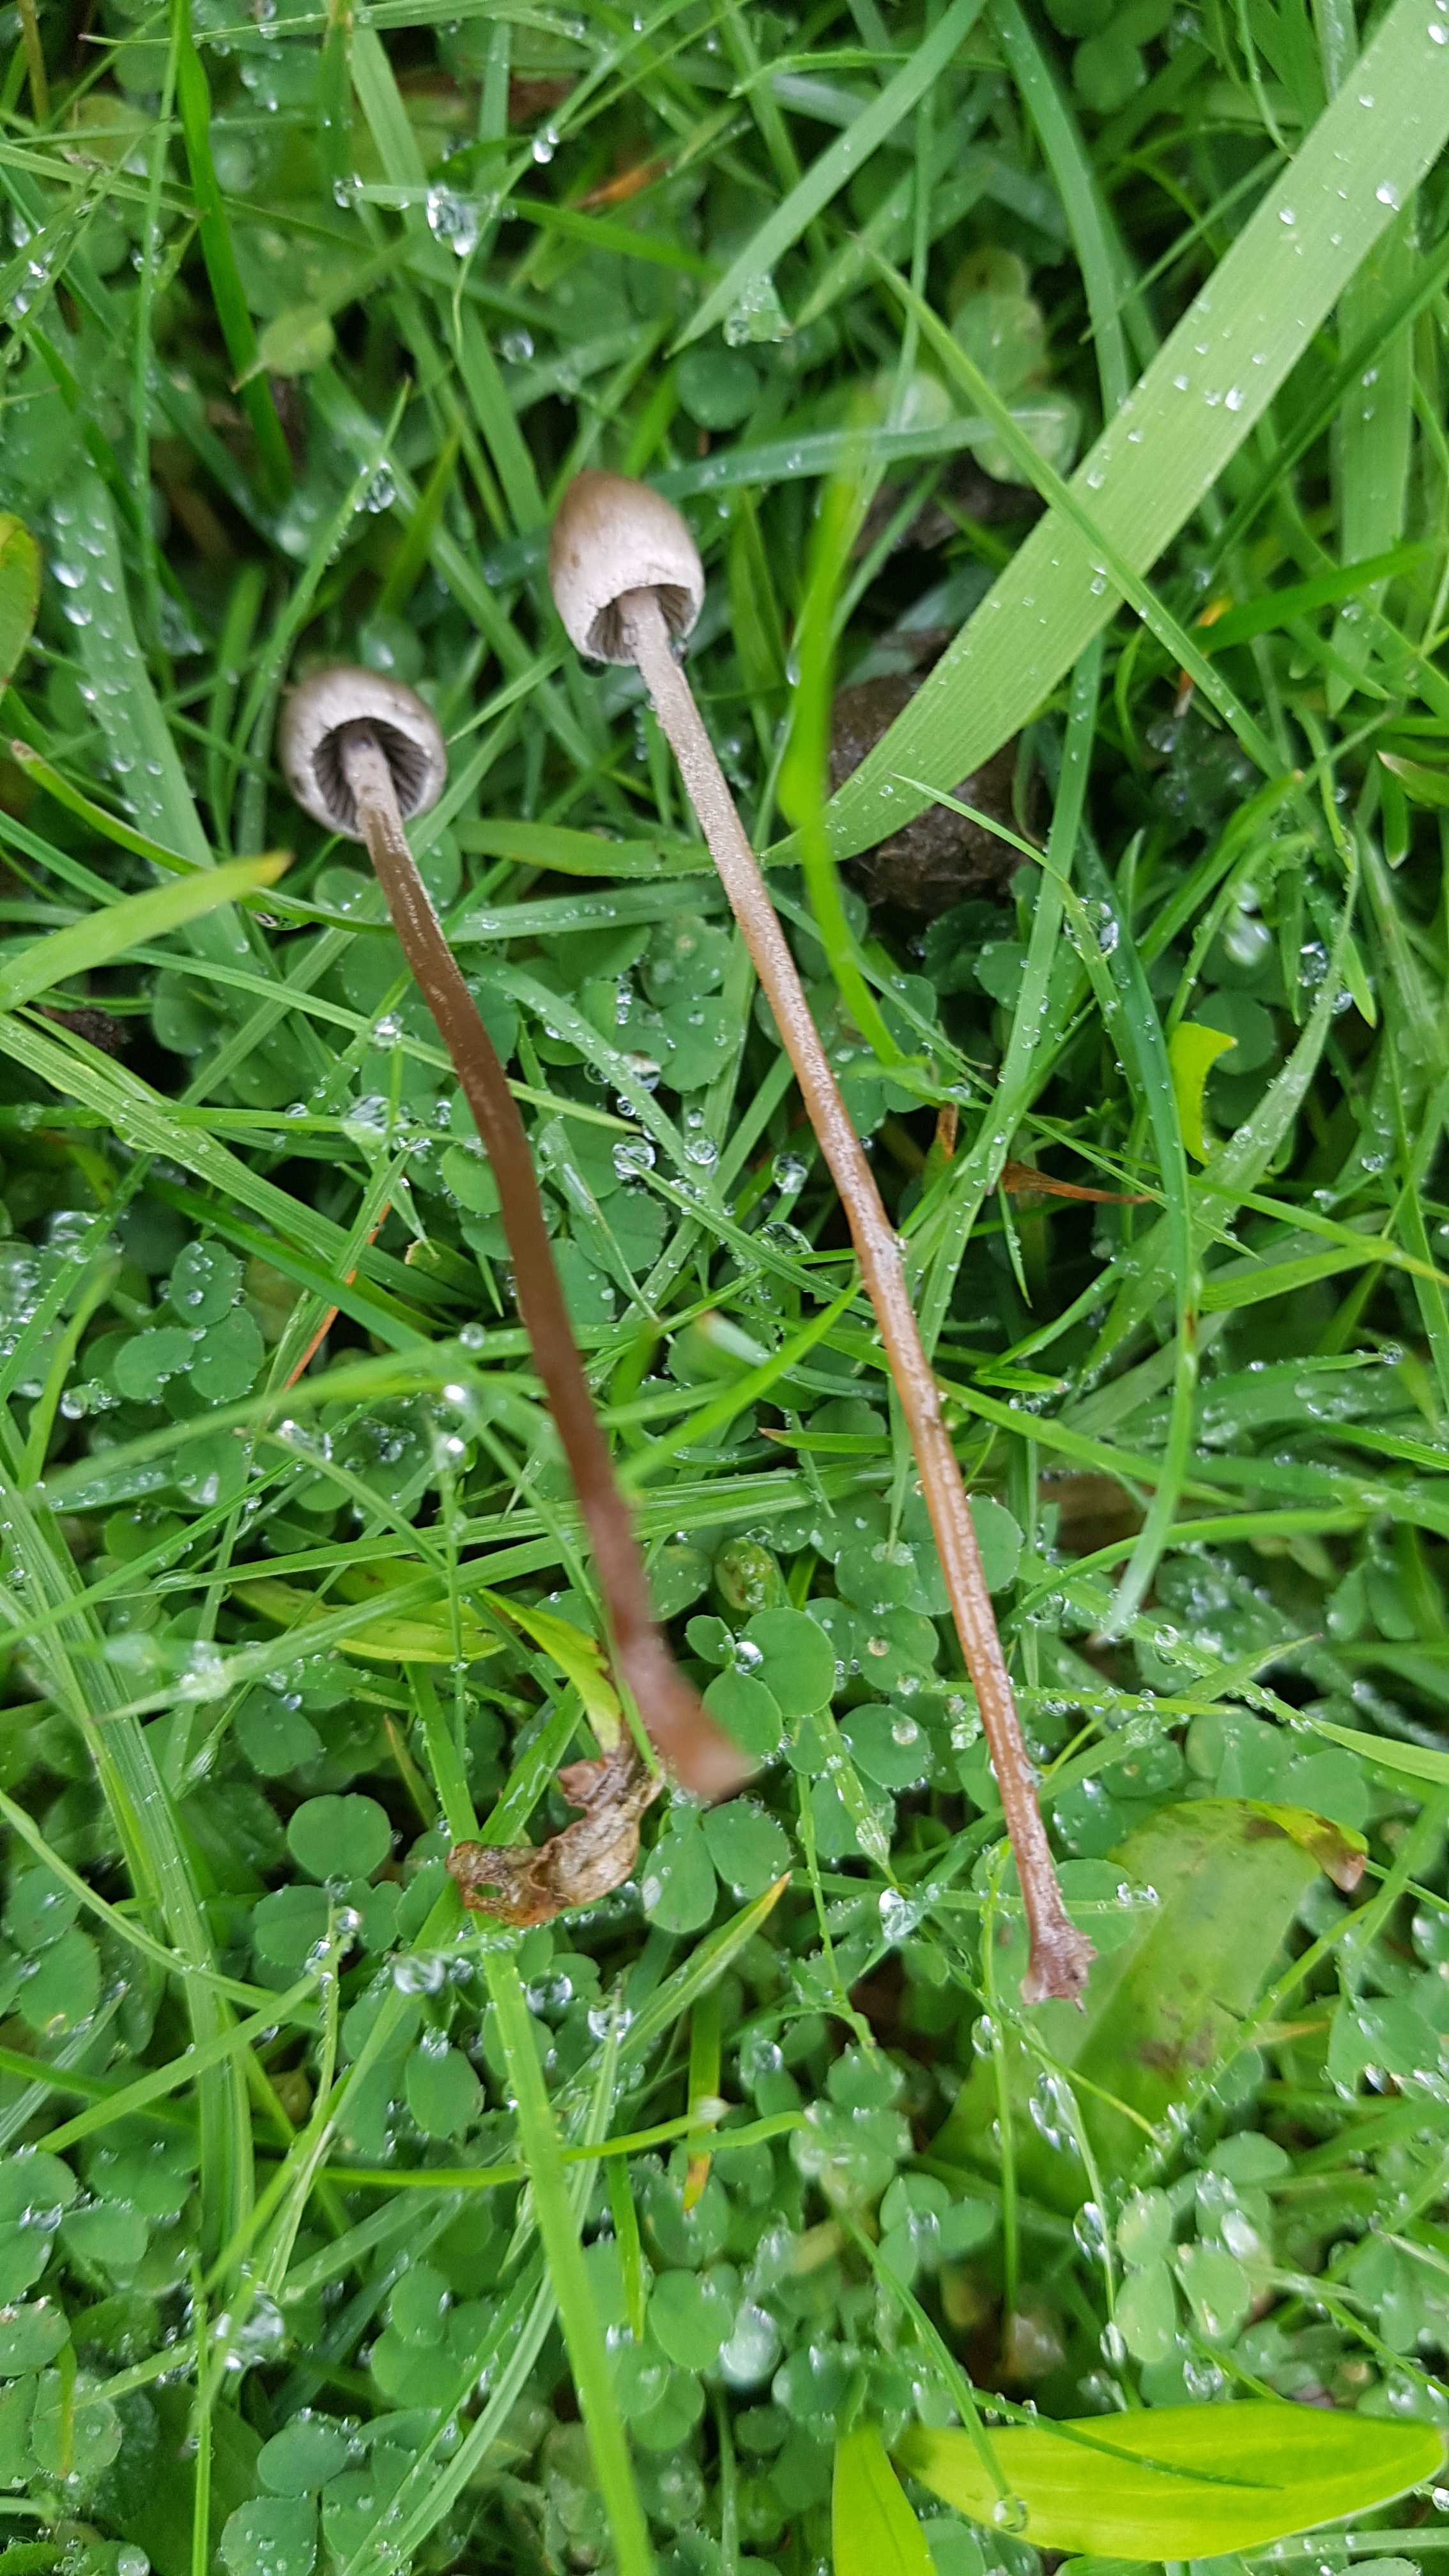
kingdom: Fungi
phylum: Basidiomycota
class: Agaricomycetes
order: Agaricales
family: Bolbitiaceae
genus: Panaeolus
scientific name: Panaeolus
